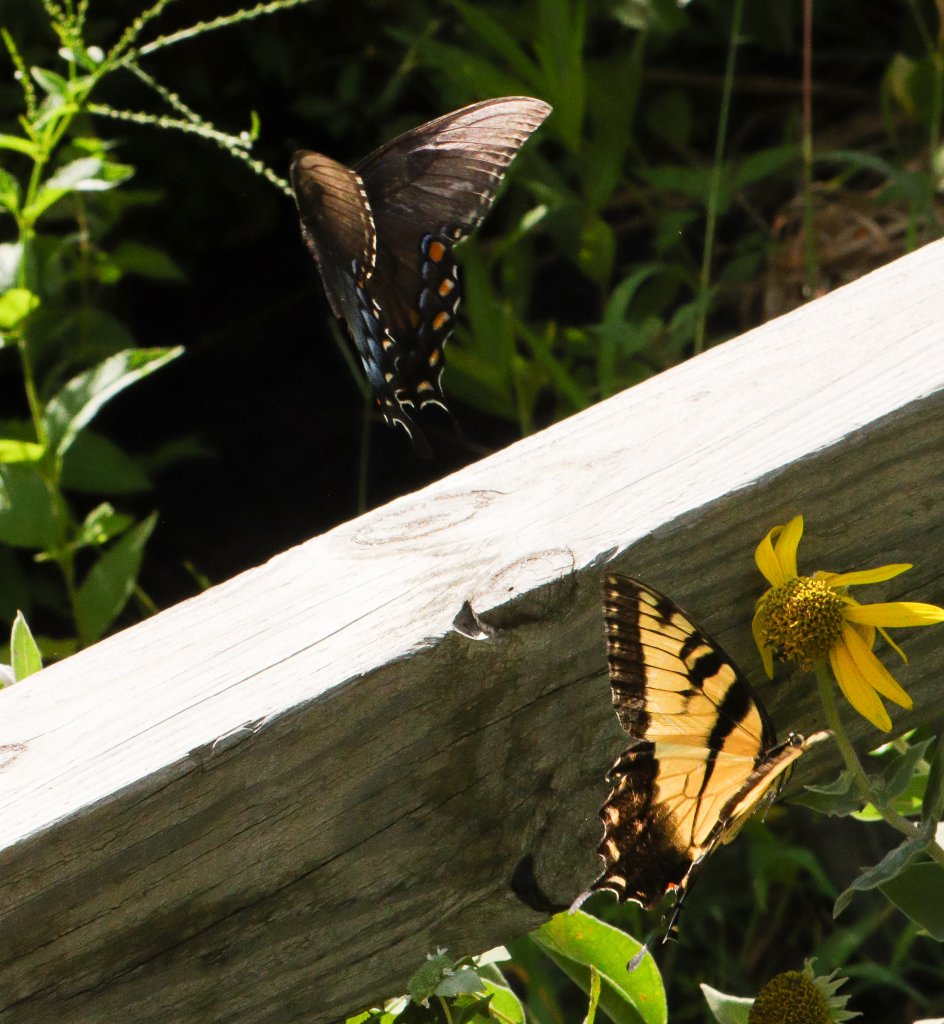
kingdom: Animalia
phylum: Arthropoda
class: Insecta
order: Lepidoptera
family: Papilionidae
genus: Pterourus
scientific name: Pterourus glaucus
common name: Eastern Tiger Swallowtail
